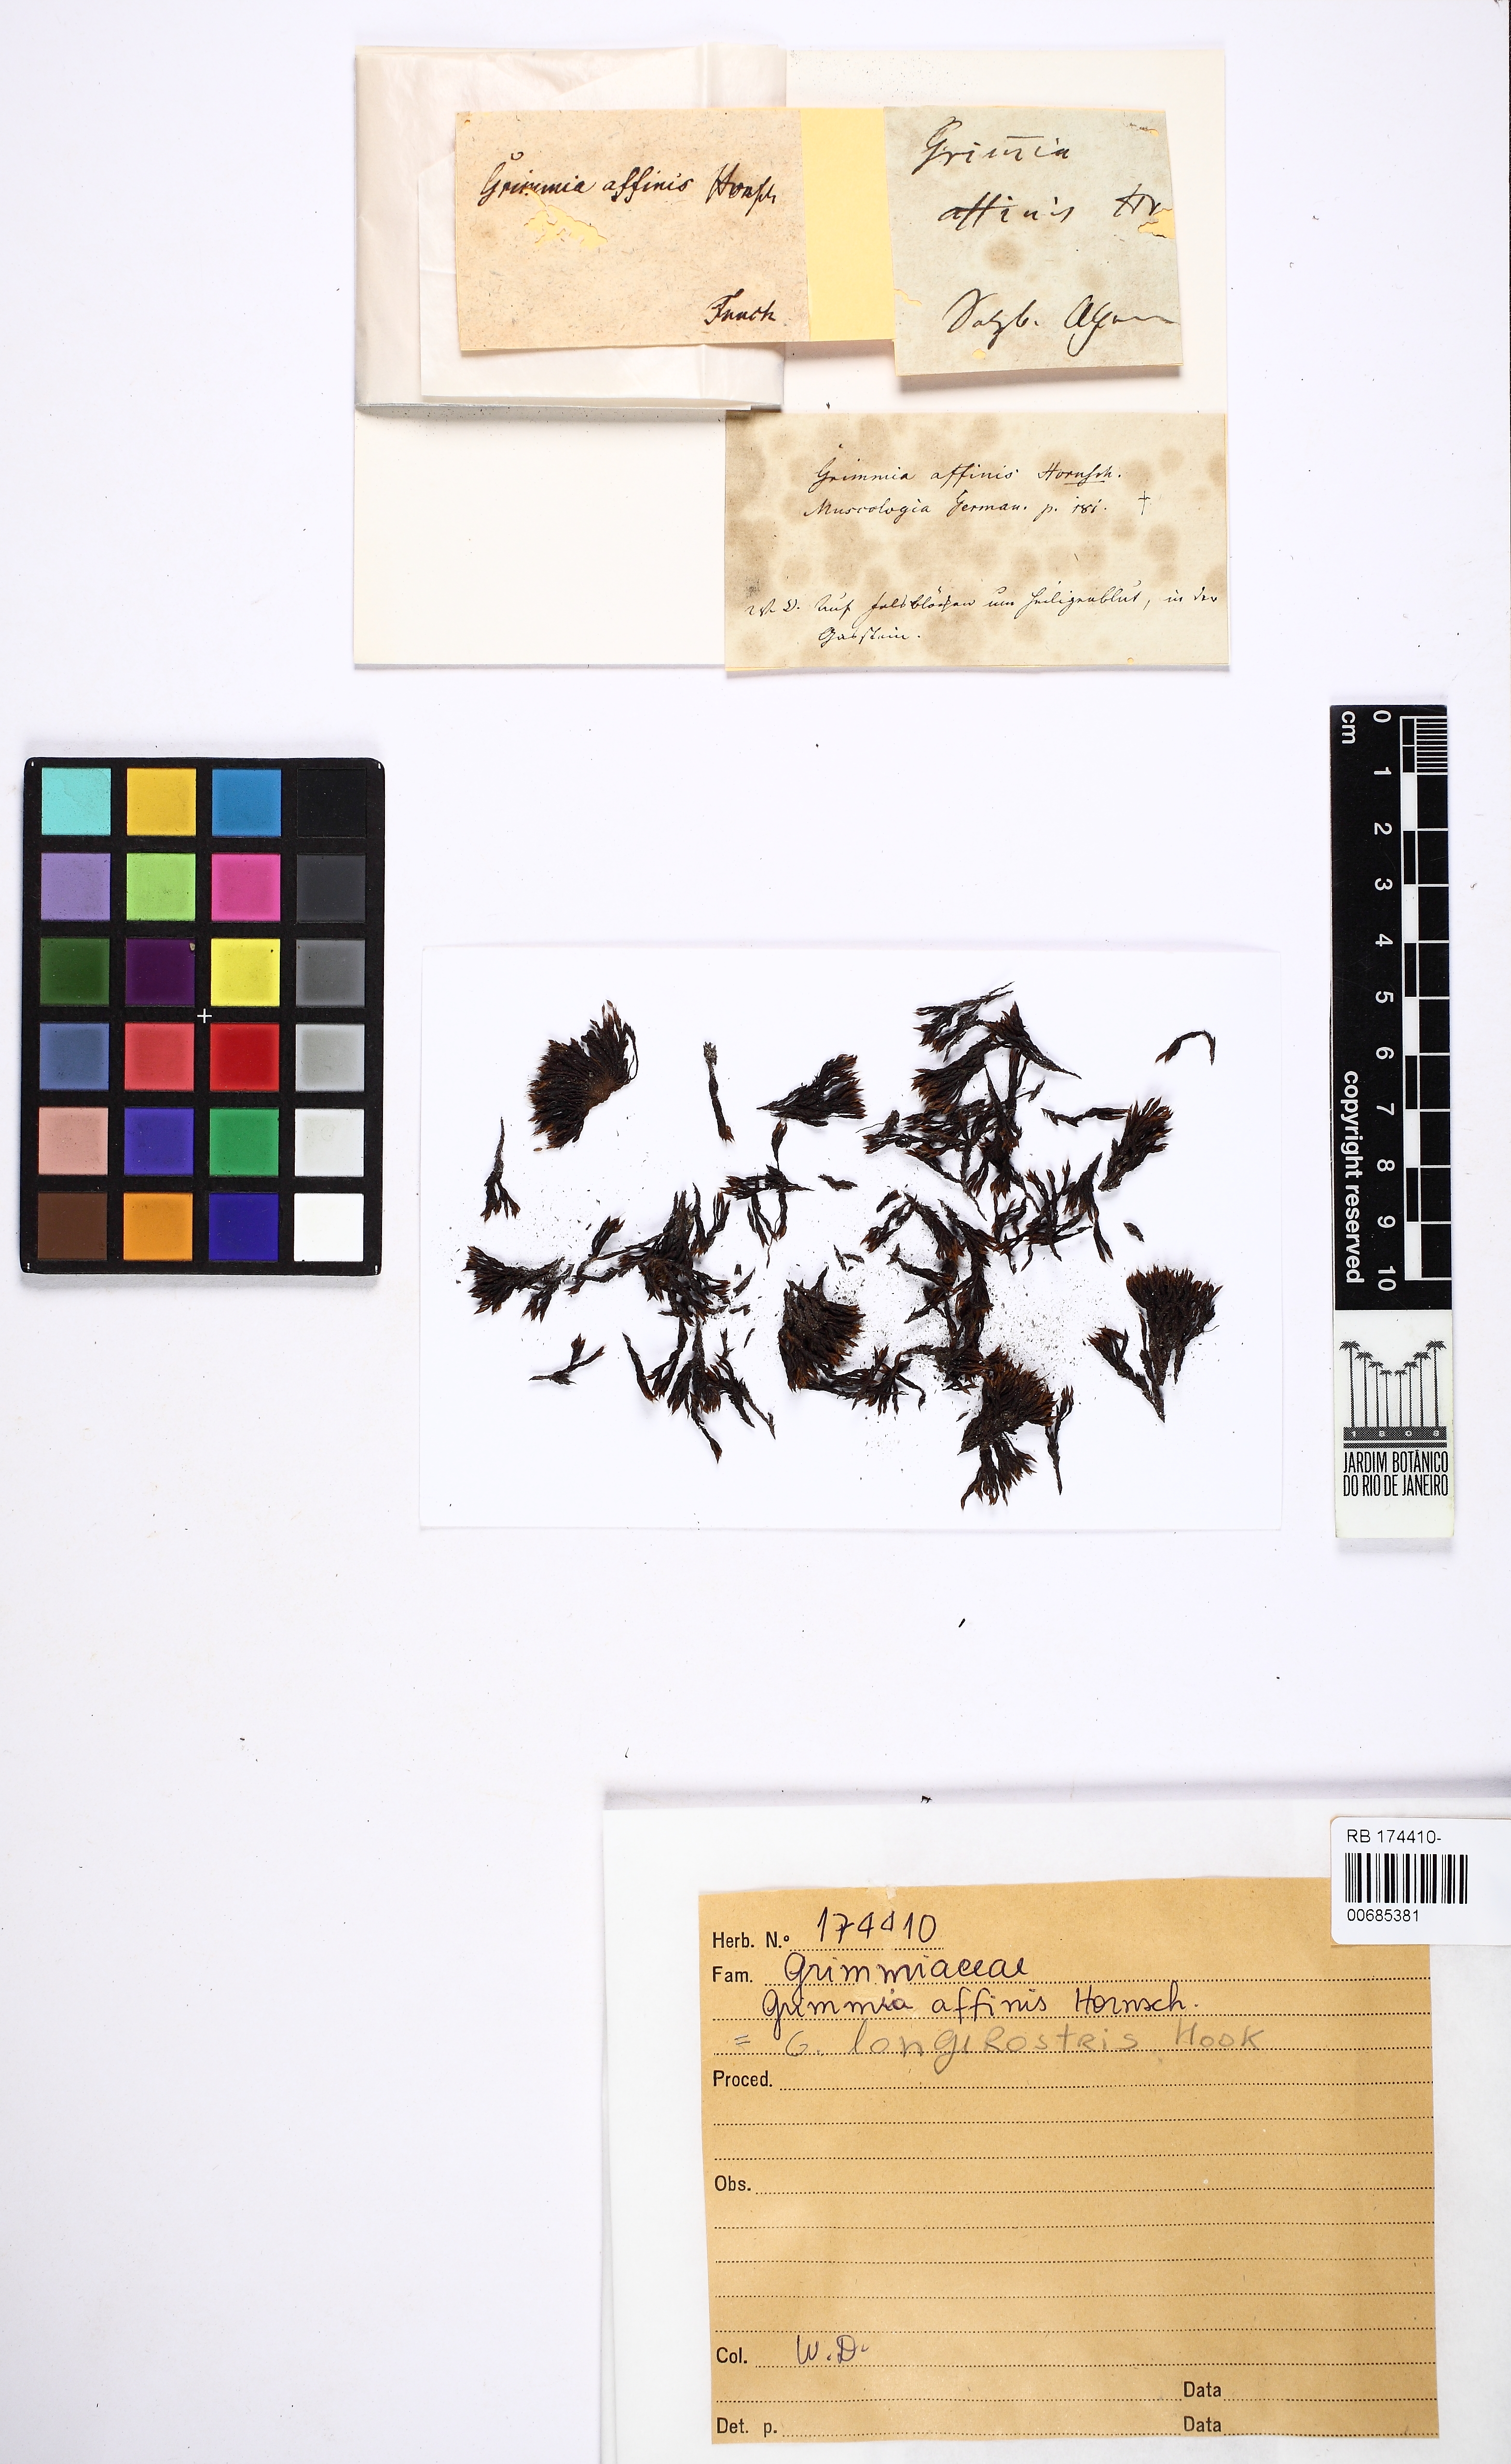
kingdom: Plantae
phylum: Bryophyta
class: Bryopsida
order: Grimmiales
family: Grimmiaceae
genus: Grimmia
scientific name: Grimmia
